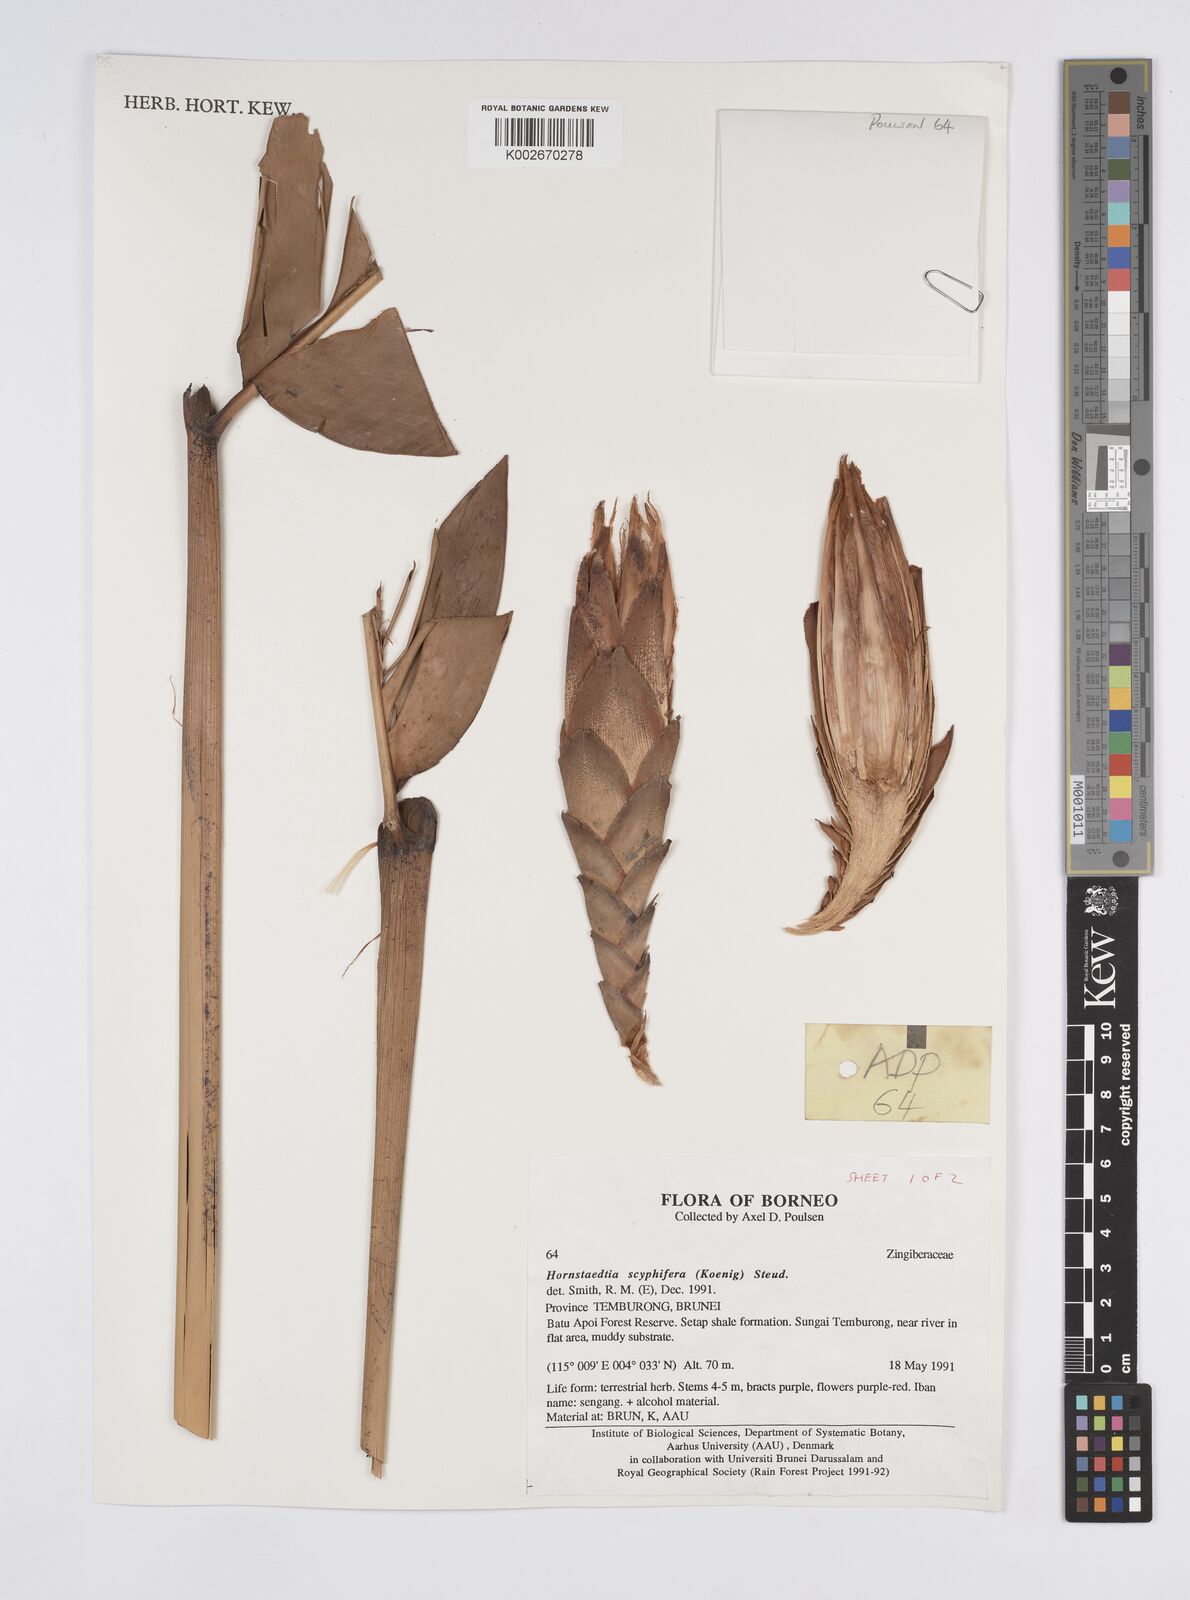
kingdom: Plantae
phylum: Tracheophyta
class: Liliopsida
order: Zingiberales
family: Zingiberaceae
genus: Hornstedtia
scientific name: Hornstedtia scyphifera
